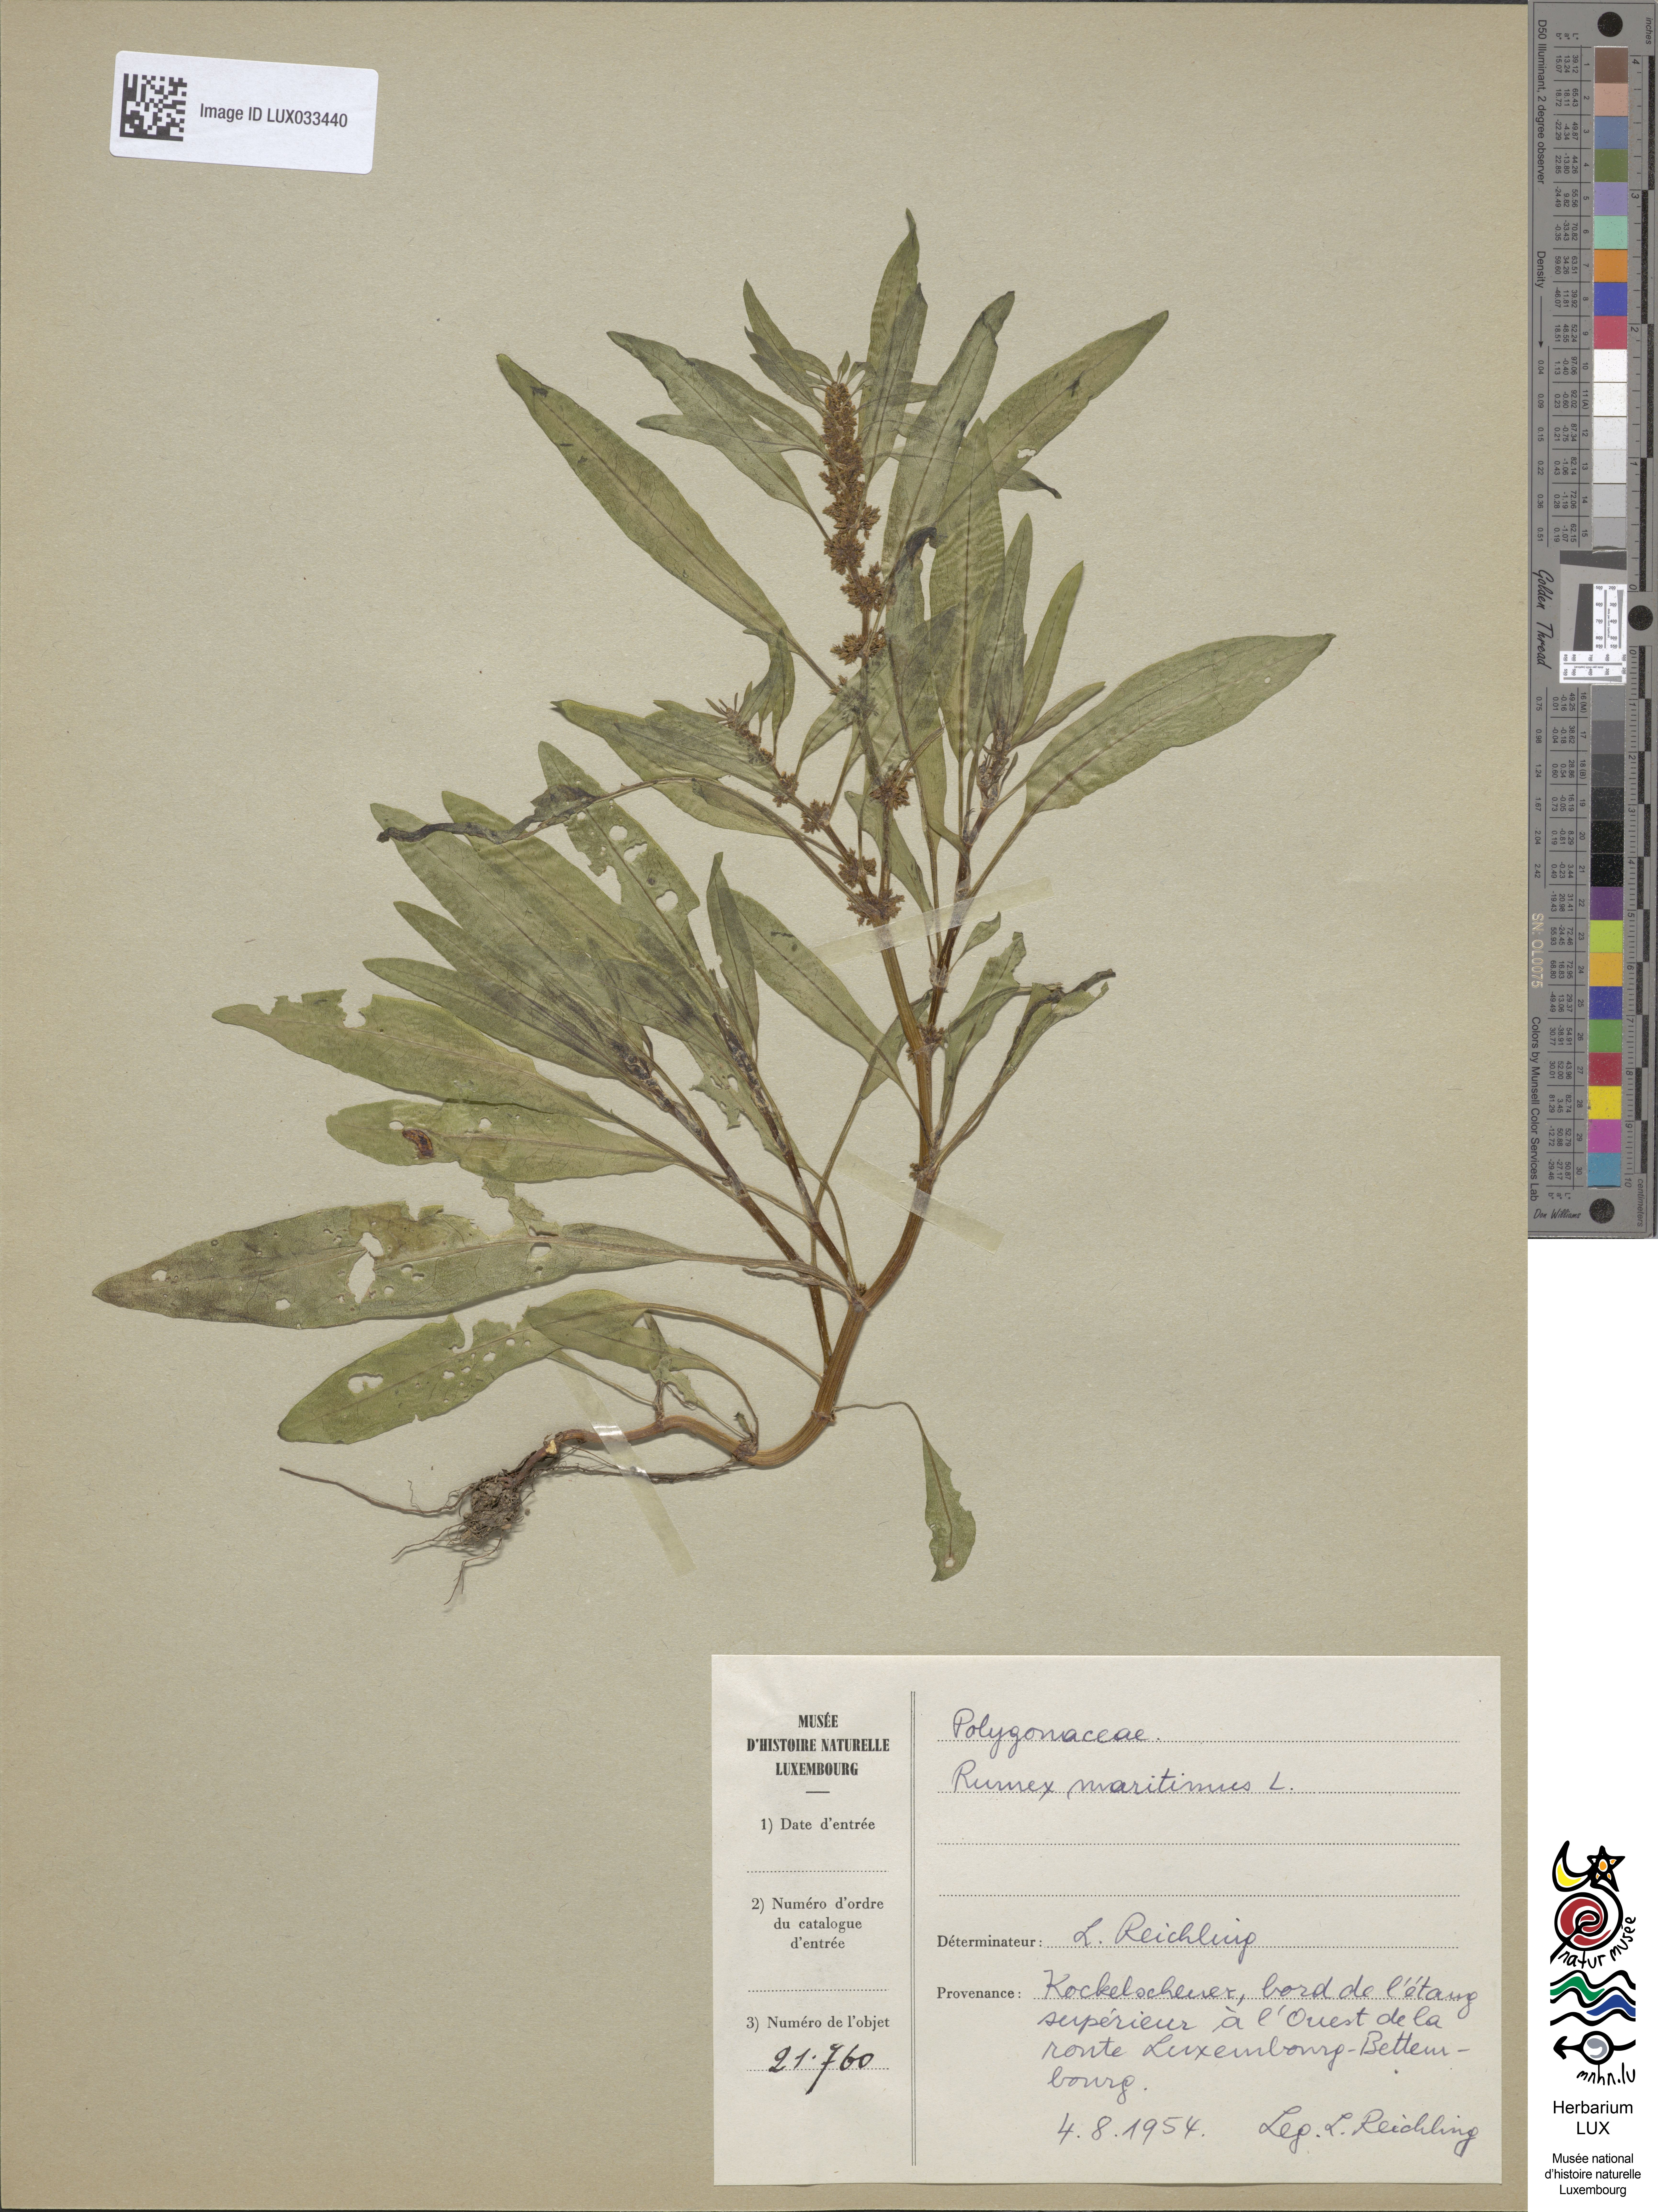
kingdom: Plantae
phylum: Tracheophyta
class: Magnoliopsida
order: Caryophyllales
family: Polygonaceae
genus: Rumex
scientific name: Rumex maritimus
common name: Golden dock
